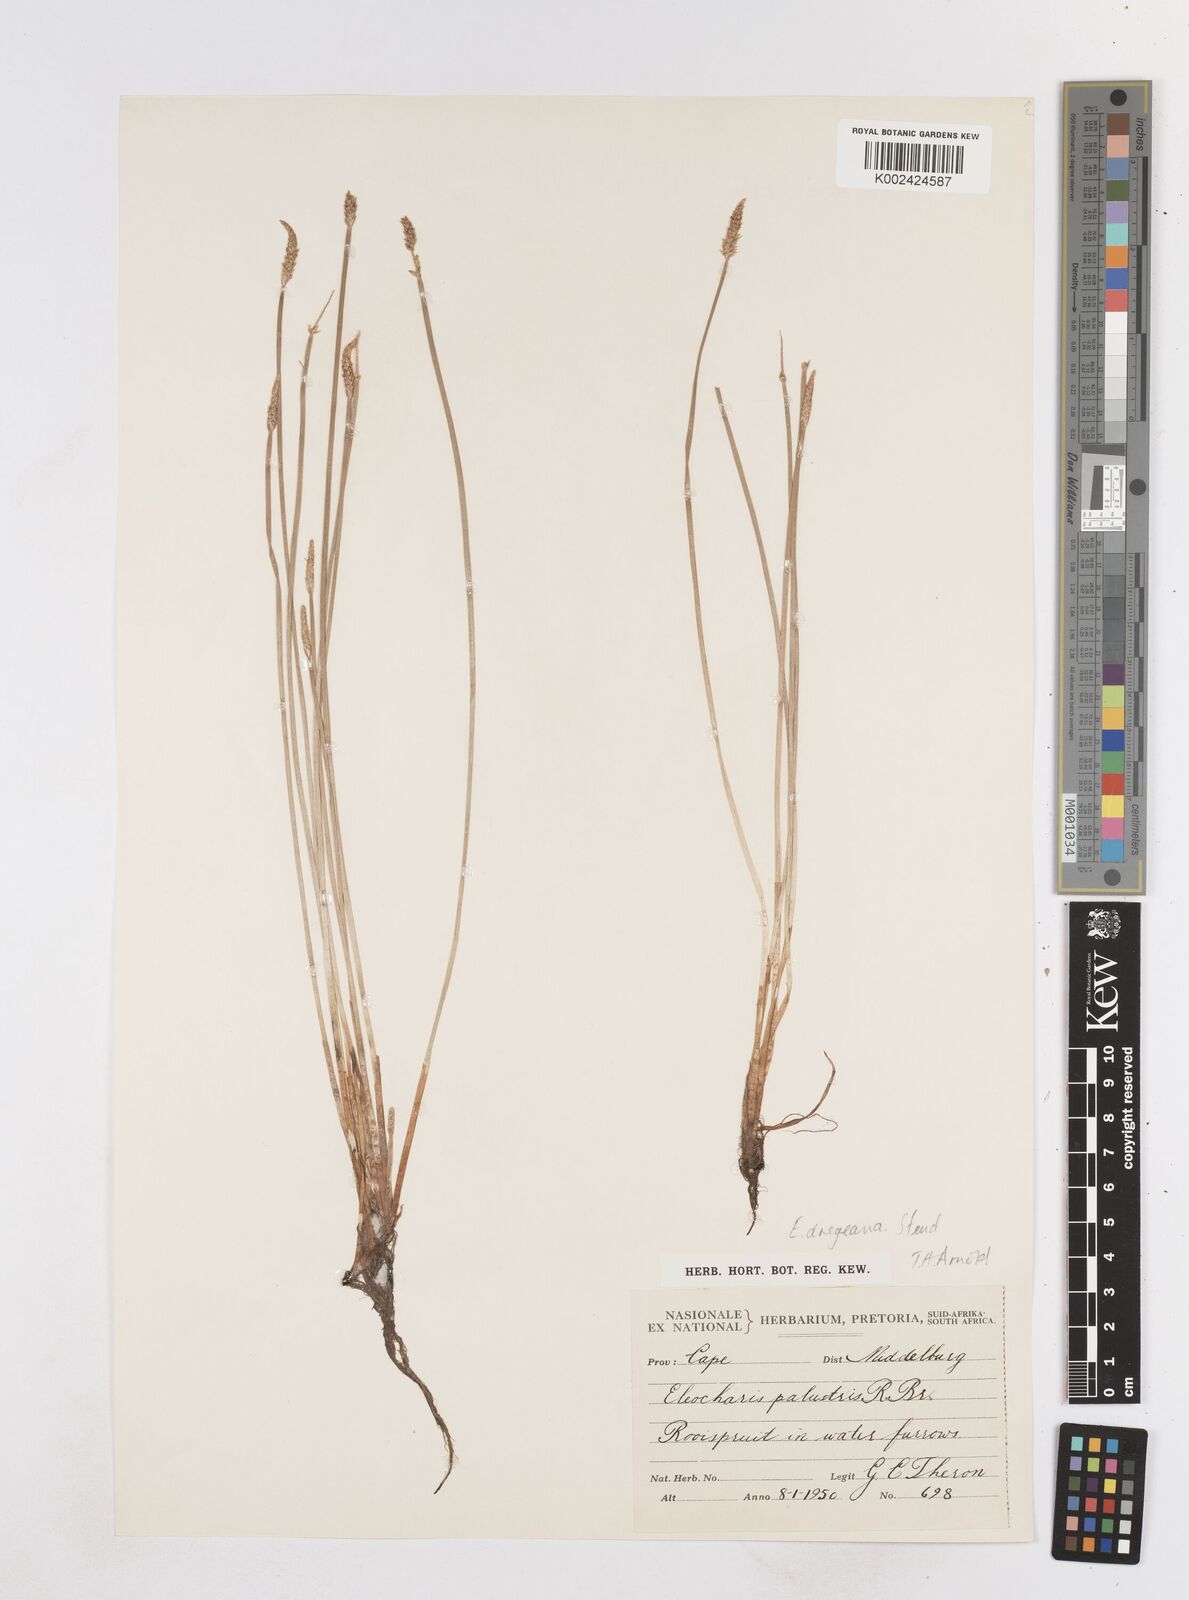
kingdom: Plantae
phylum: Tracheophyta
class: Liliopsida
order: Poales
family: Cyperaceae
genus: Eleocharis
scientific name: Eleocharis dregeana
